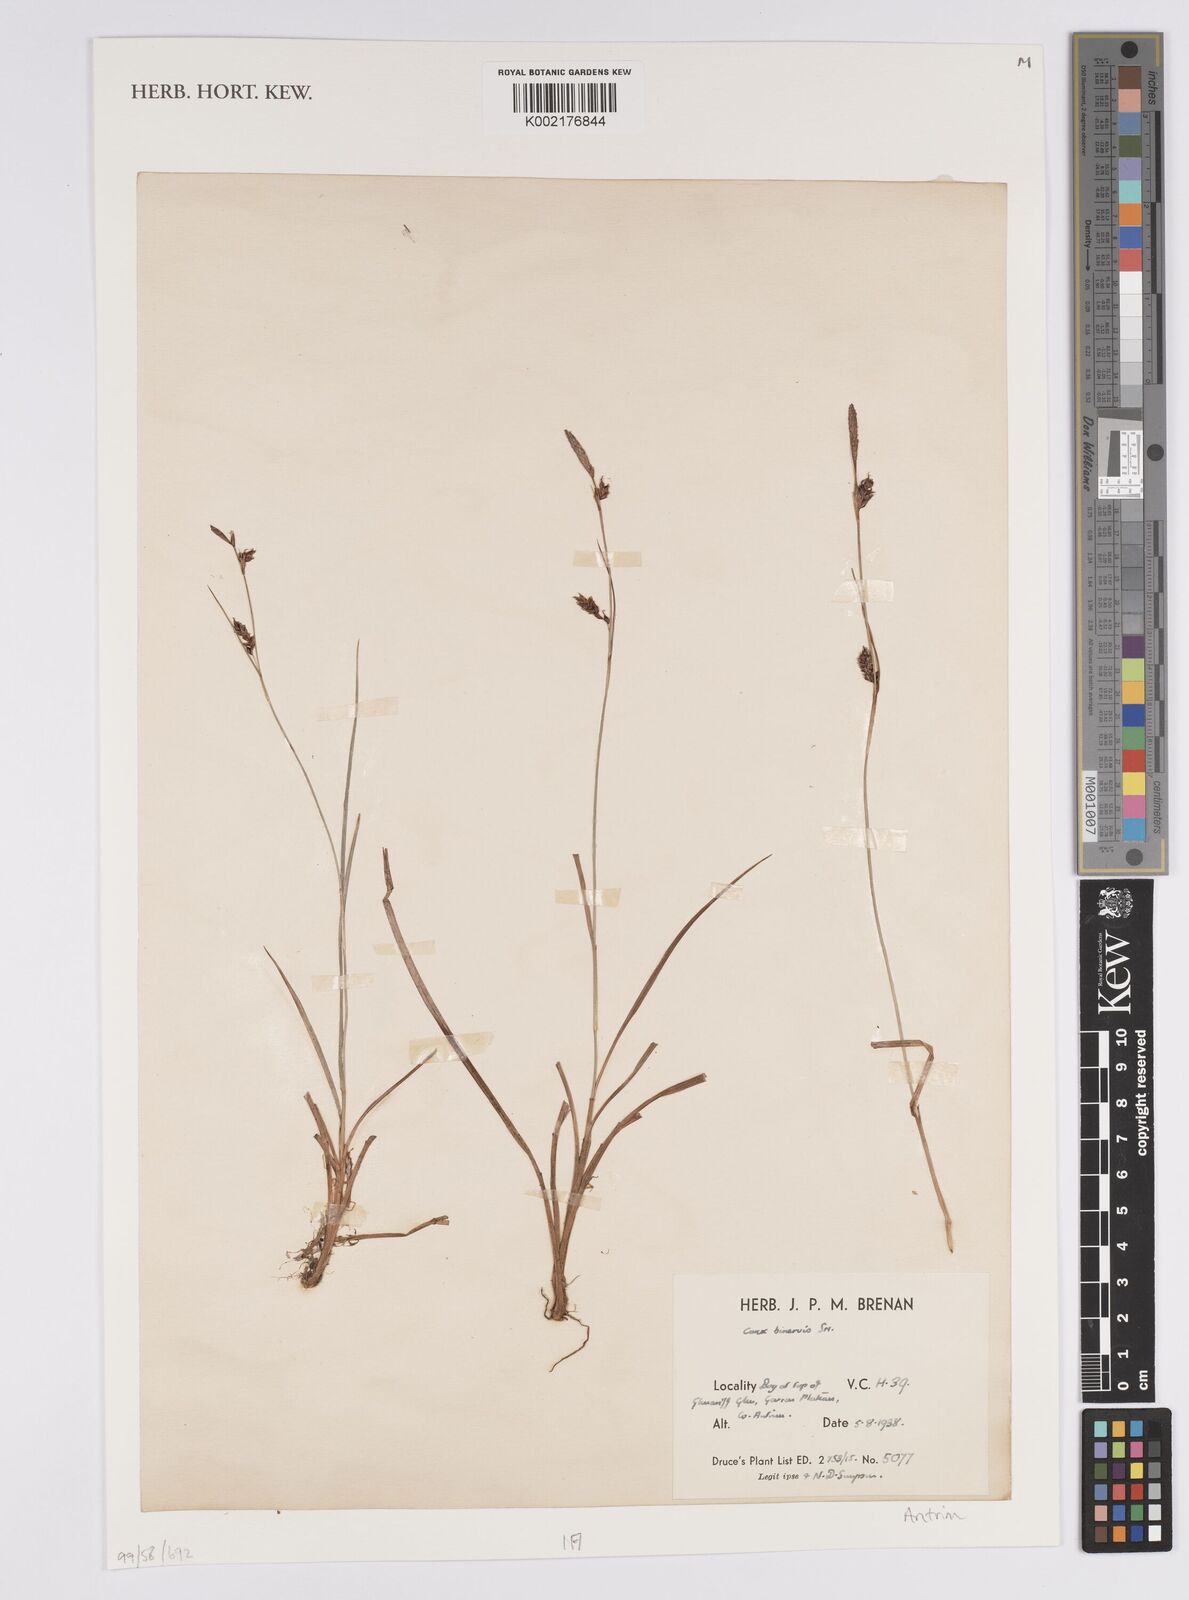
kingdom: Plantae
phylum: Tracheophyta
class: Liliopsida
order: Poales
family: Cyperaceae
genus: Carex
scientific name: Carex binervis
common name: Green-ribbed sedge
